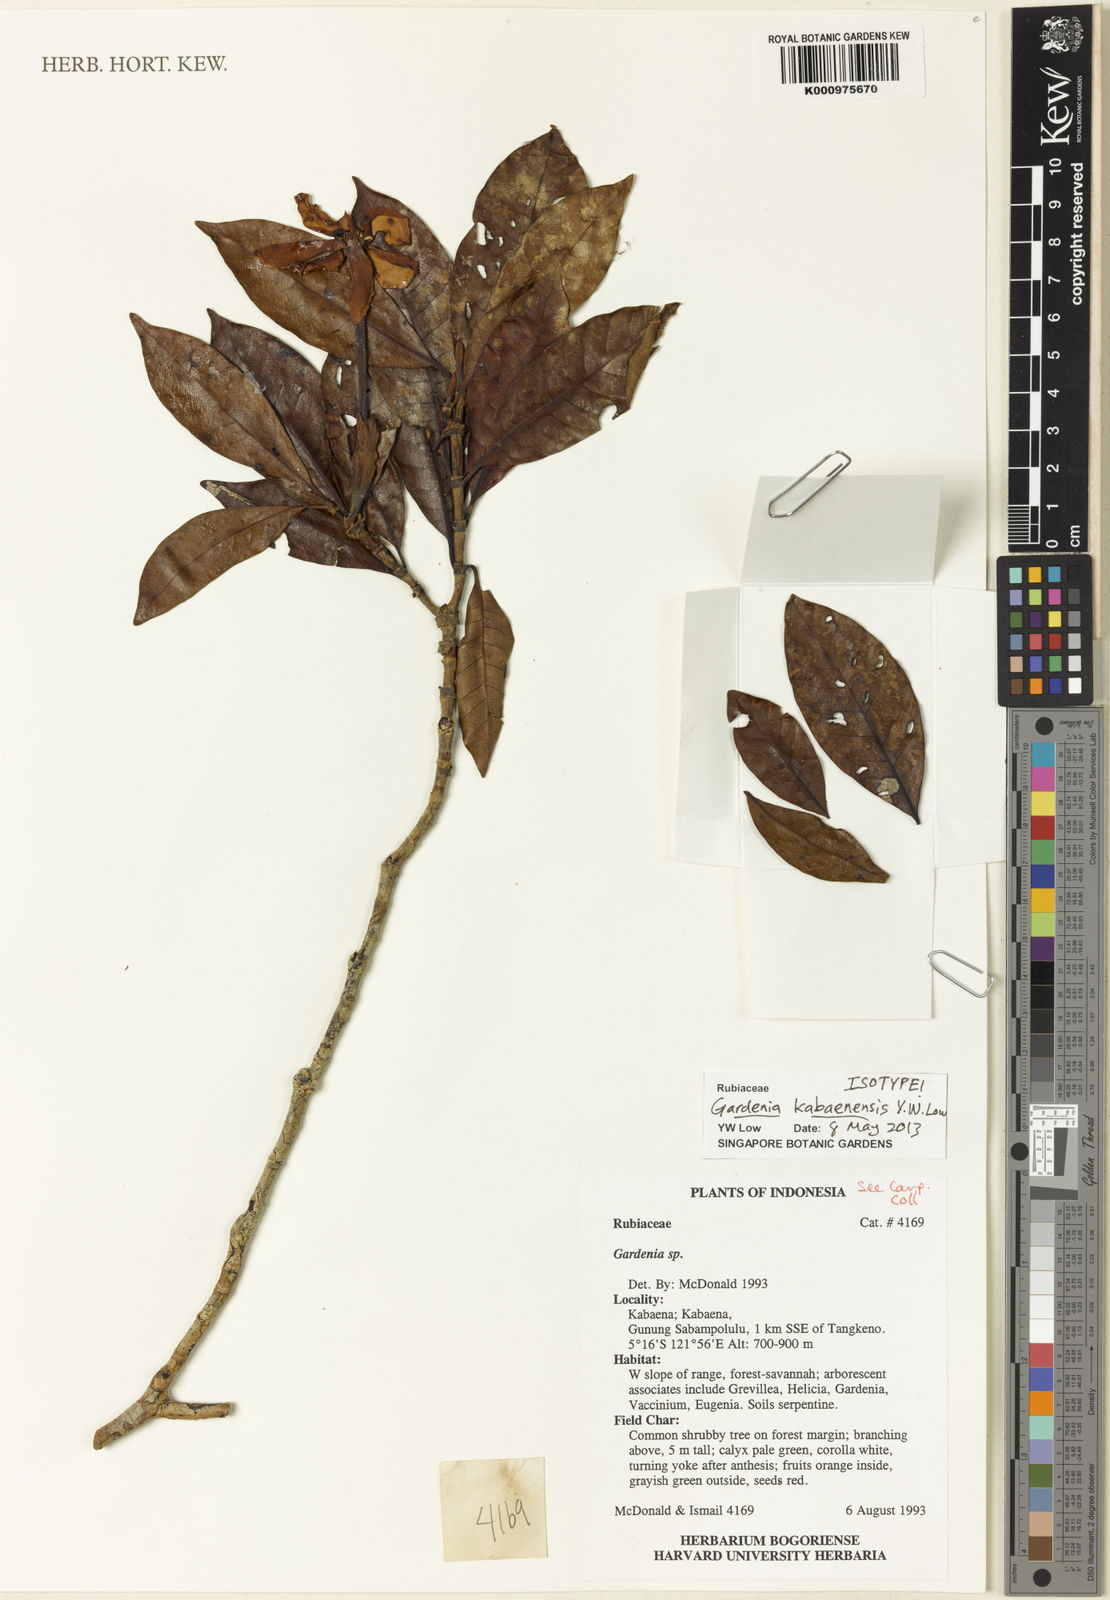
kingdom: Plantae
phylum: Tracheophyta
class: Magnoliopsida
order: Gentianales
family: Rubiaceae
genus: Gardenia
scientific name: Gardenia kabaenensis
